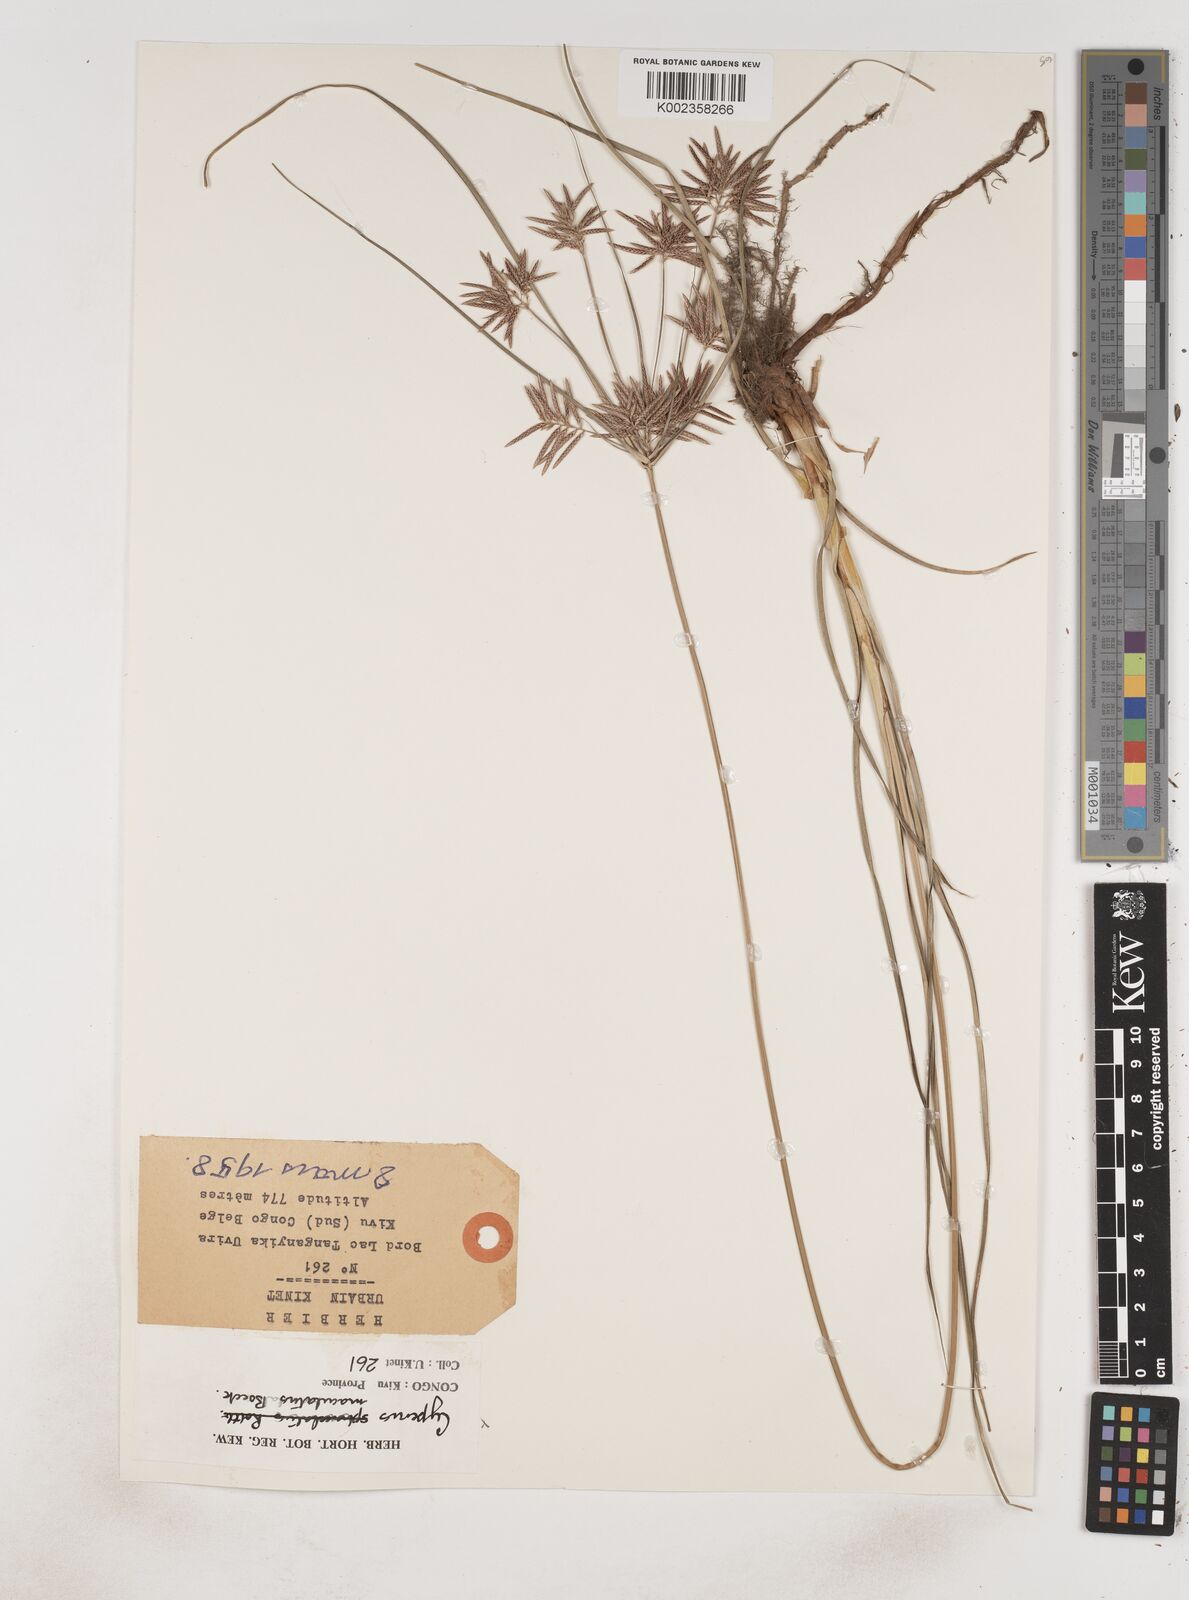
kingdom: Plantae
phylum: Tracheophyta
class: Liliopsida
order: Poales
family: Cyperaceae
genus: Cyperus
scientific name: Cyperus maculatus
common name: Maculated sedge
